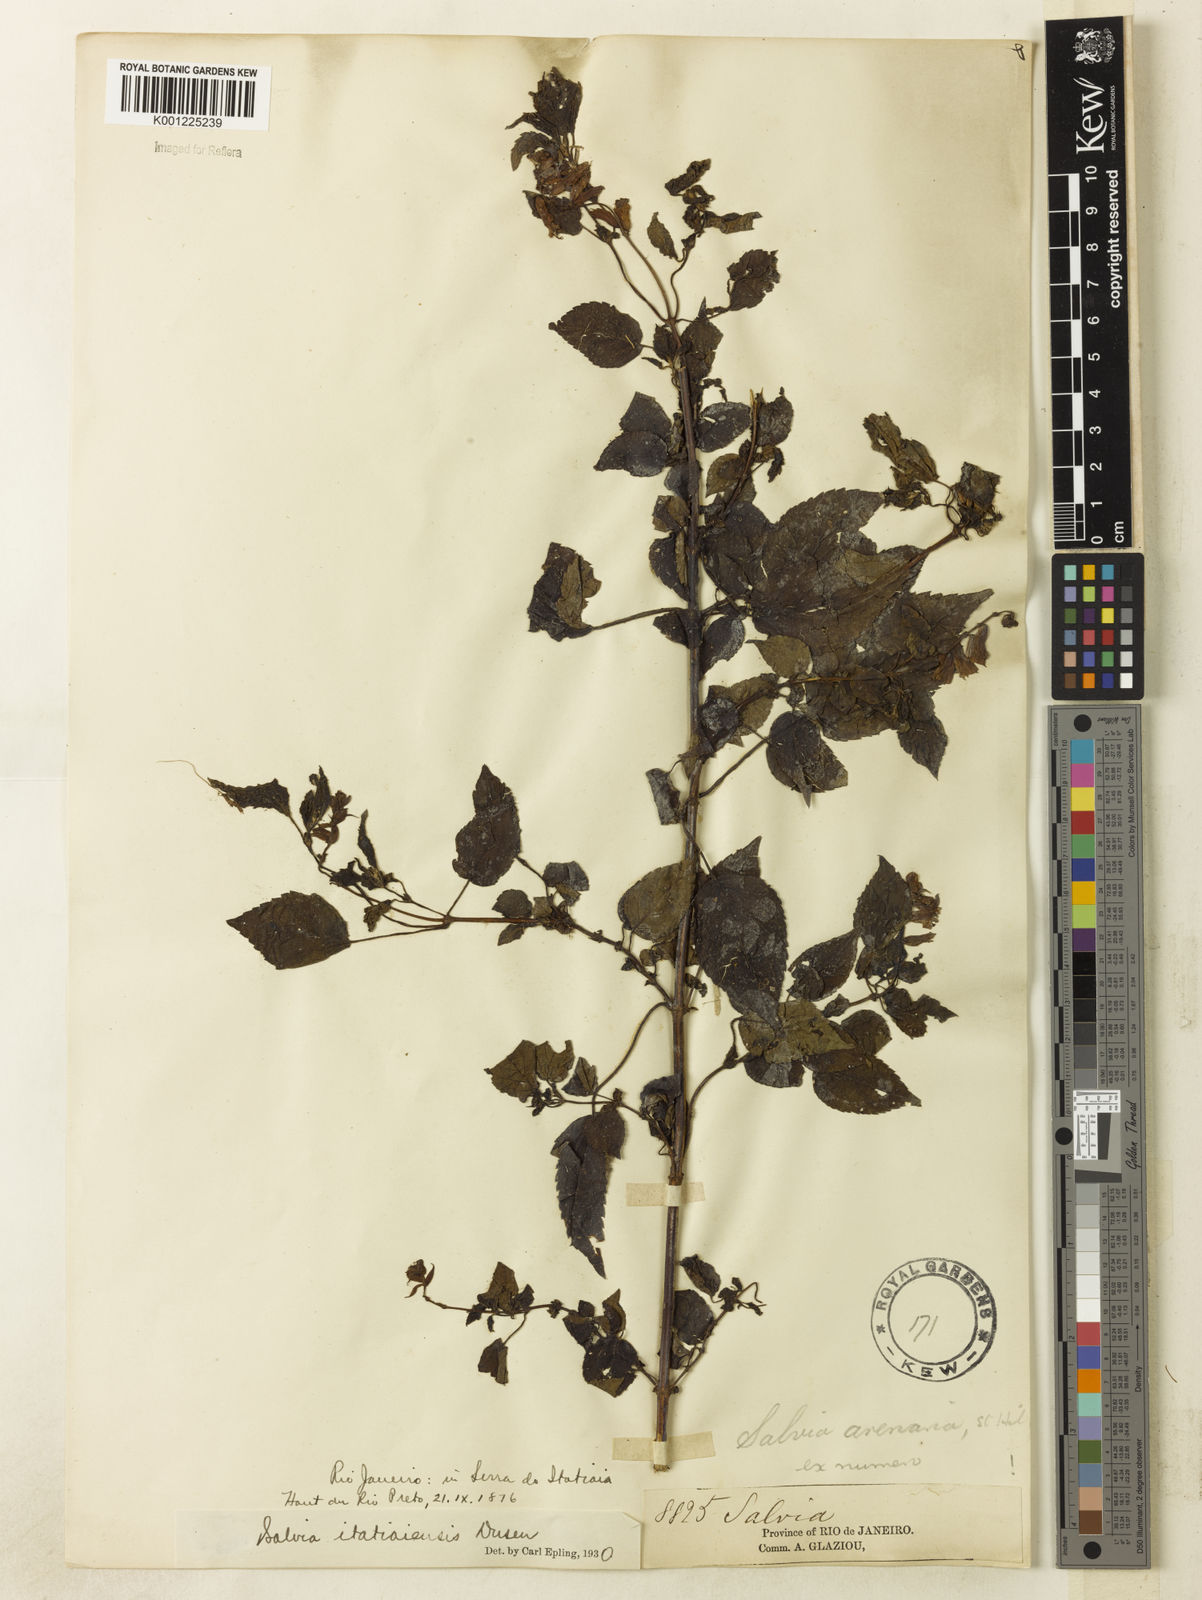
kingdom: Plantae
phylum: Tracheophyta
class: Magnoliopsida
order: Lamiales
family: Lamiaceae
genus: Salvia
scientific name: Salvia
